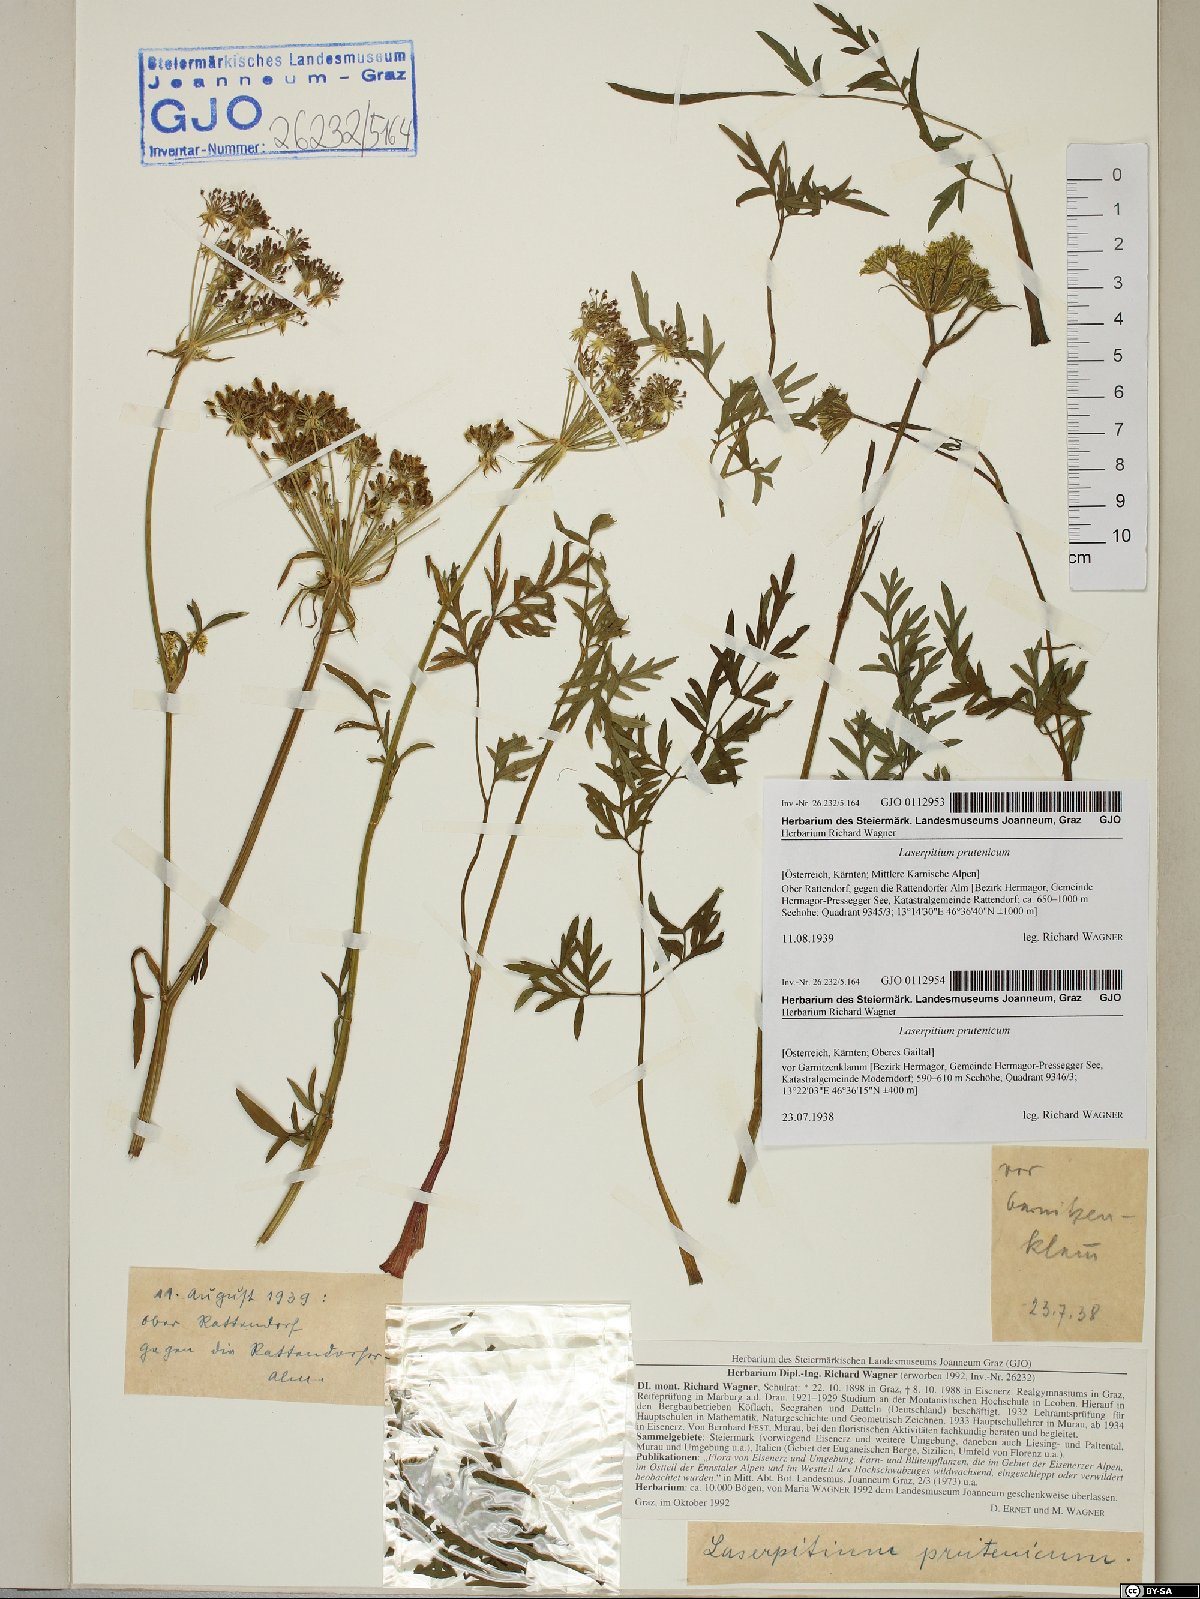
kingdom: Plantae
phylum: Tracheophyta
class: Magnoliopsida
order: Apiales
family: Apiaceae
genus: Silphiodaucus
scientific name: Silphiodaucus prutenicus
